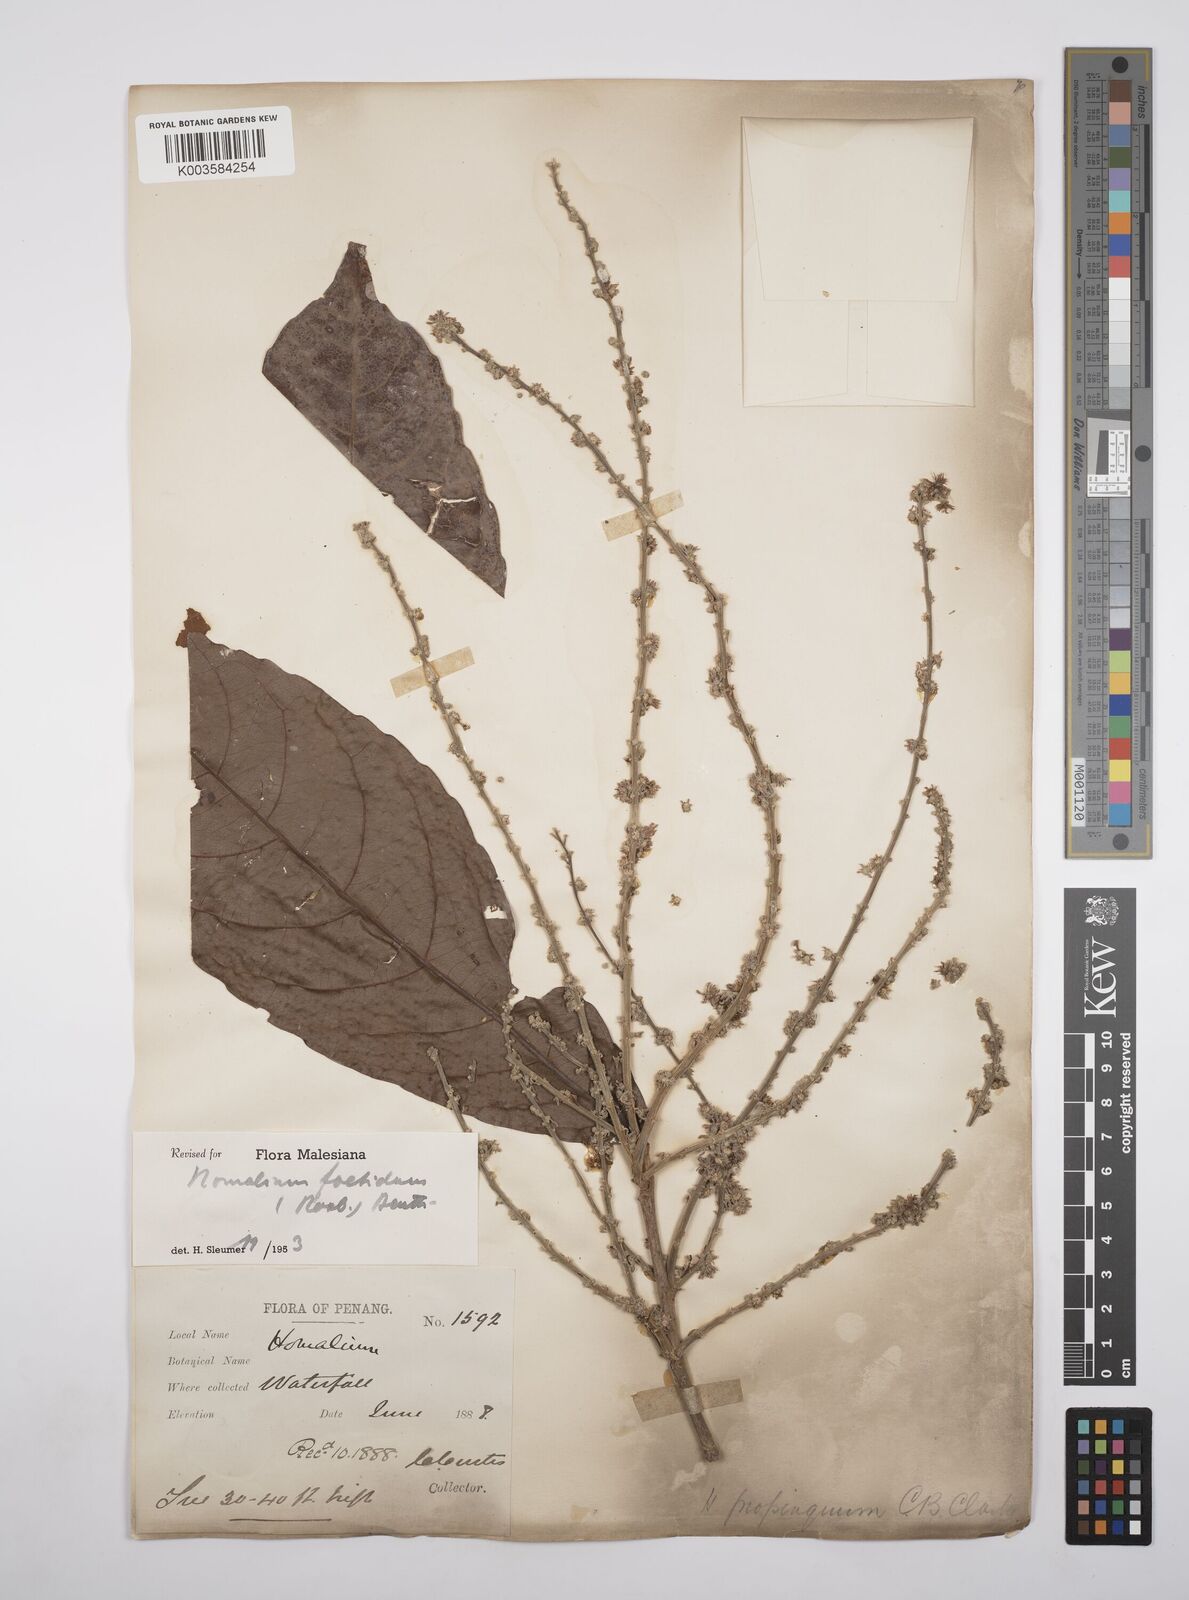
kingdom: Plantae
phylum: Tracheophyta
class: Magnoliopsida
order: Malpighiales
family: Salicaceae
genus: Homalium
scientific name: Homalium foetidum
